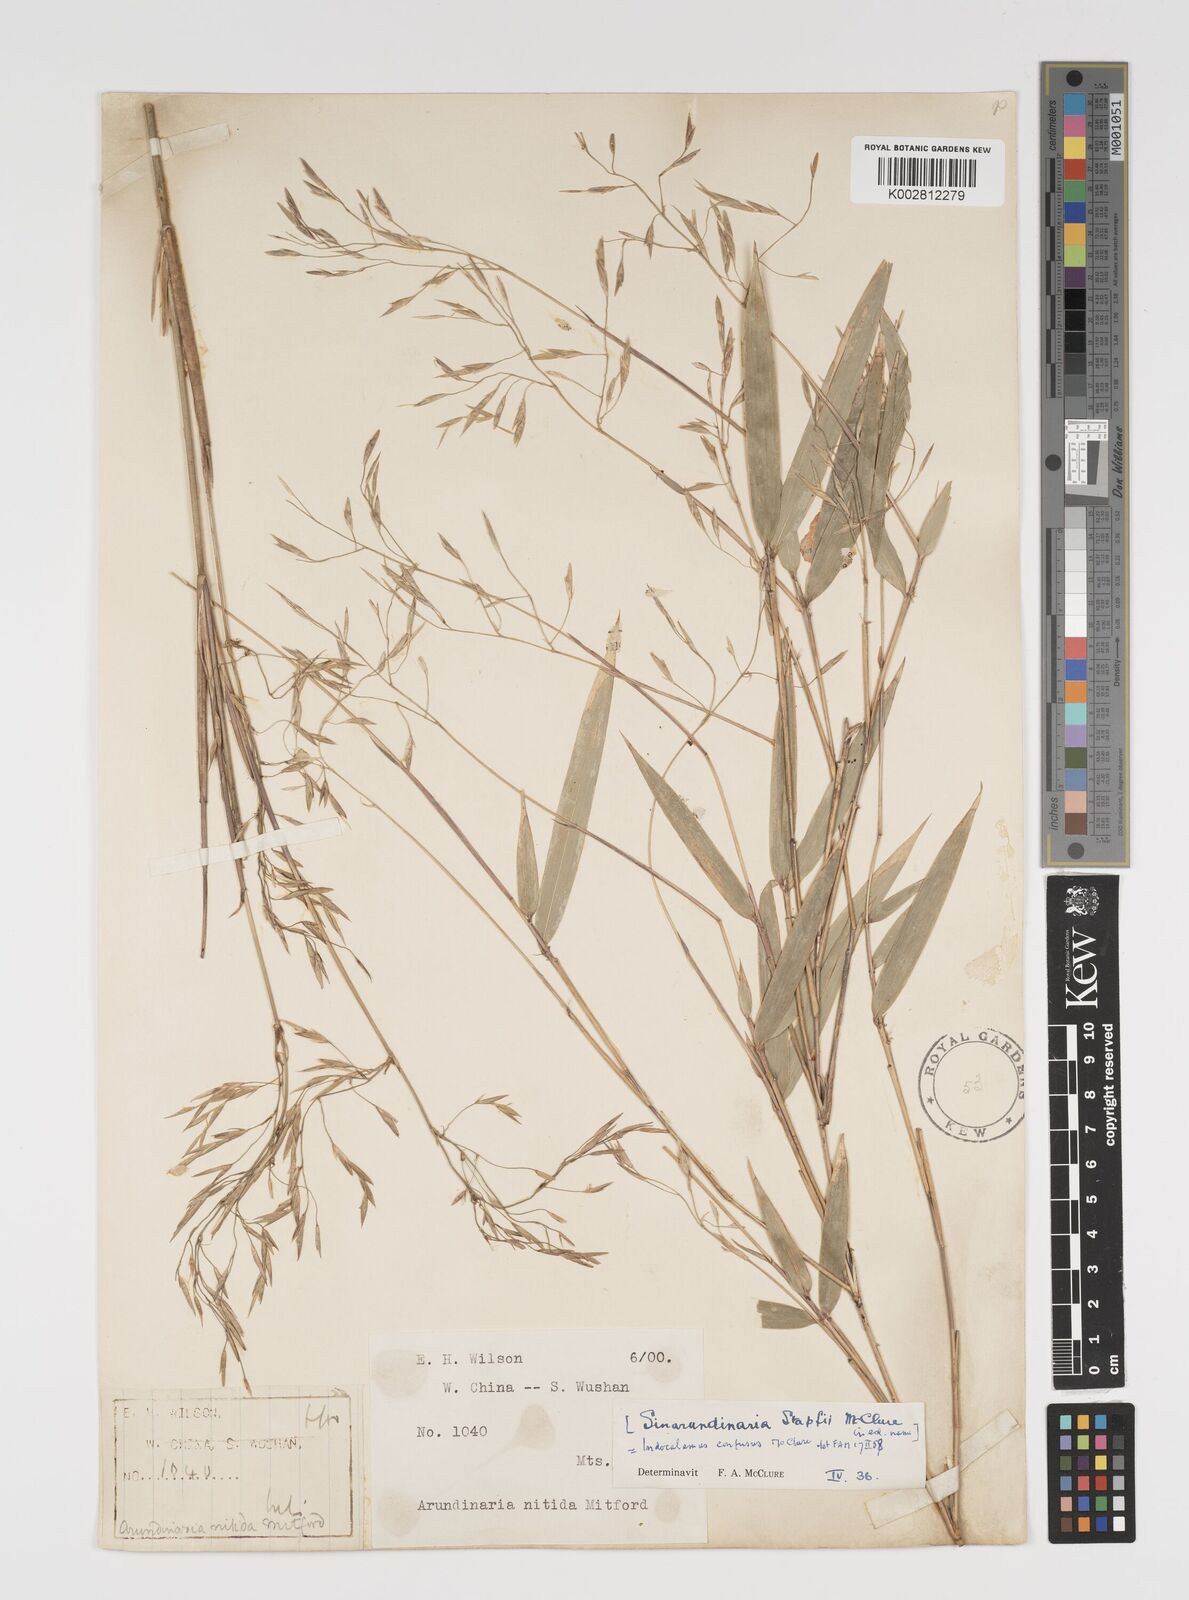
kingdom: Plantae
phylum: Tracheophyta
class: Liliopsida
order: Poales
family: Poaceae
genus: Yushania
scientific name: Yushania confusa
